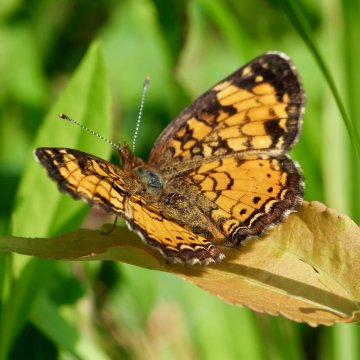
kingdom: Animalia
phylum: Arthropoda
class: Insecta
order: Lepidoptera
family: Nymphalidae
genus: Phyciodes
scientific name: Phyciodes
